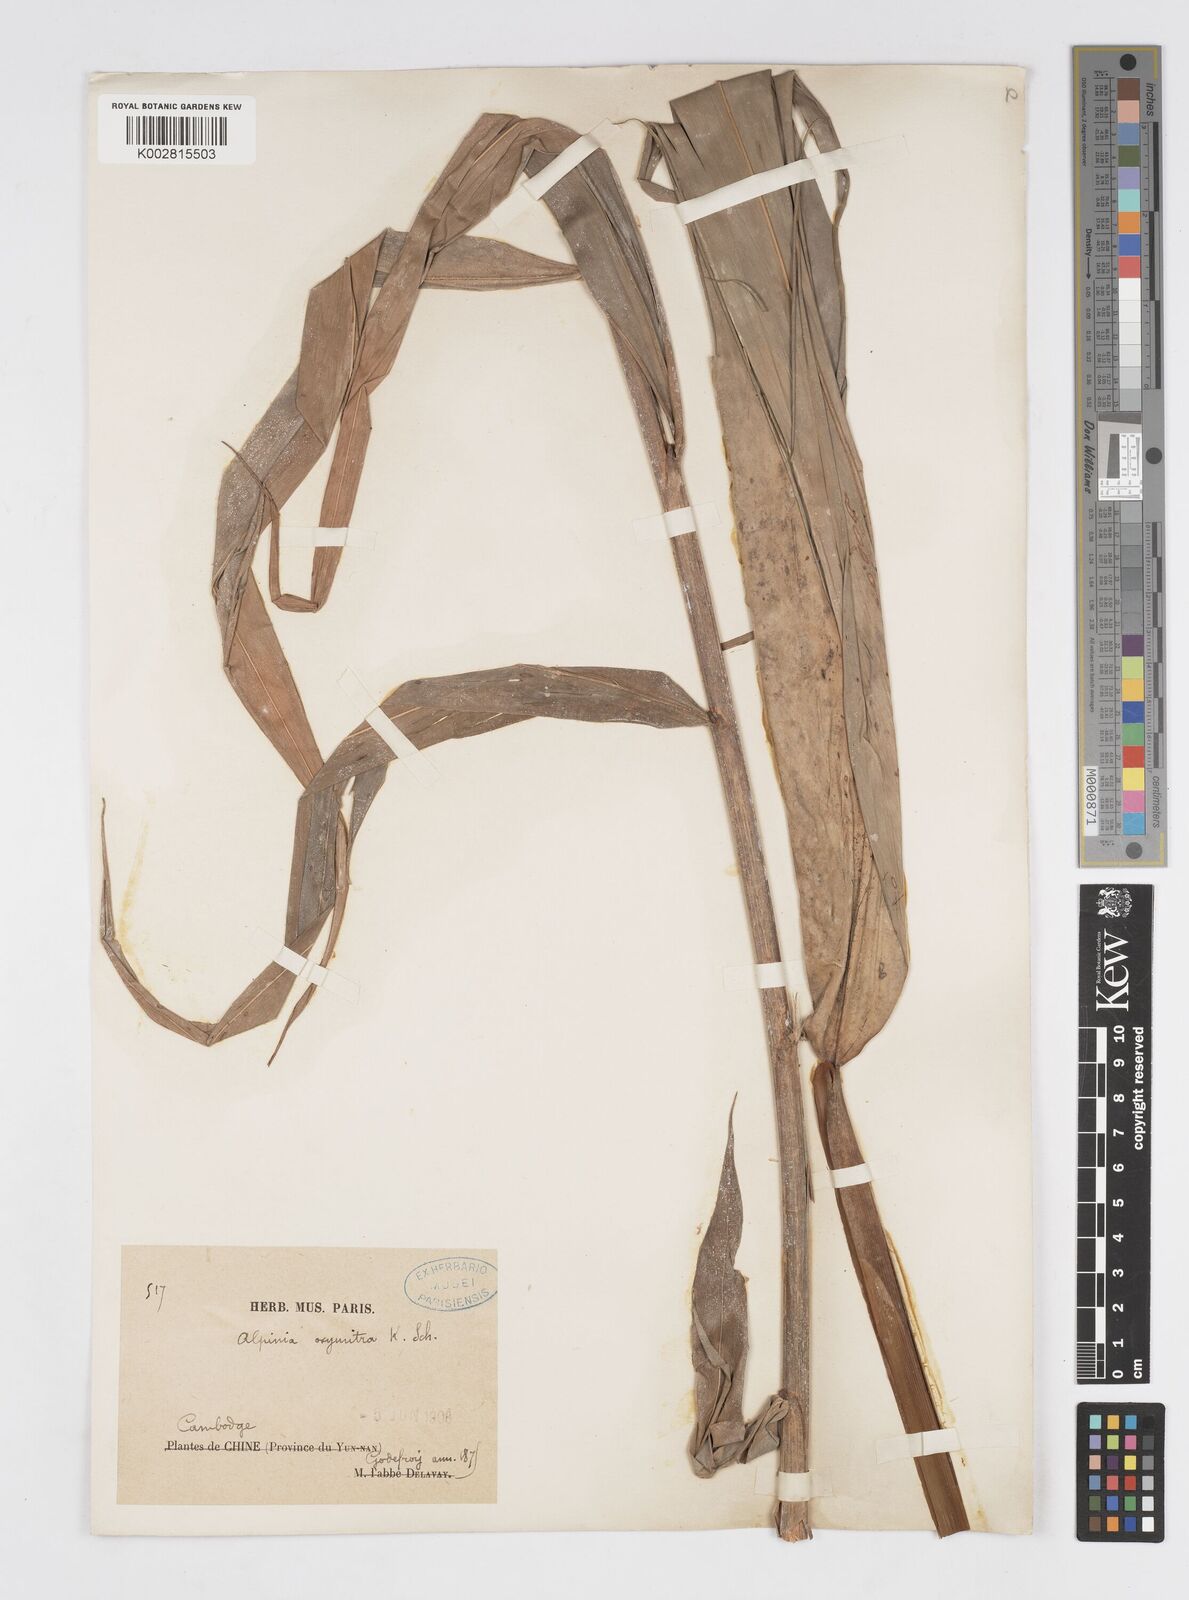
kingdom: Plantae
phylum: Tracheophyta
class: Liliopsida
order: Zingiberales
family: Zingiberaceae
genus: Alpinia
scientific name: Alpinia oxymitra
